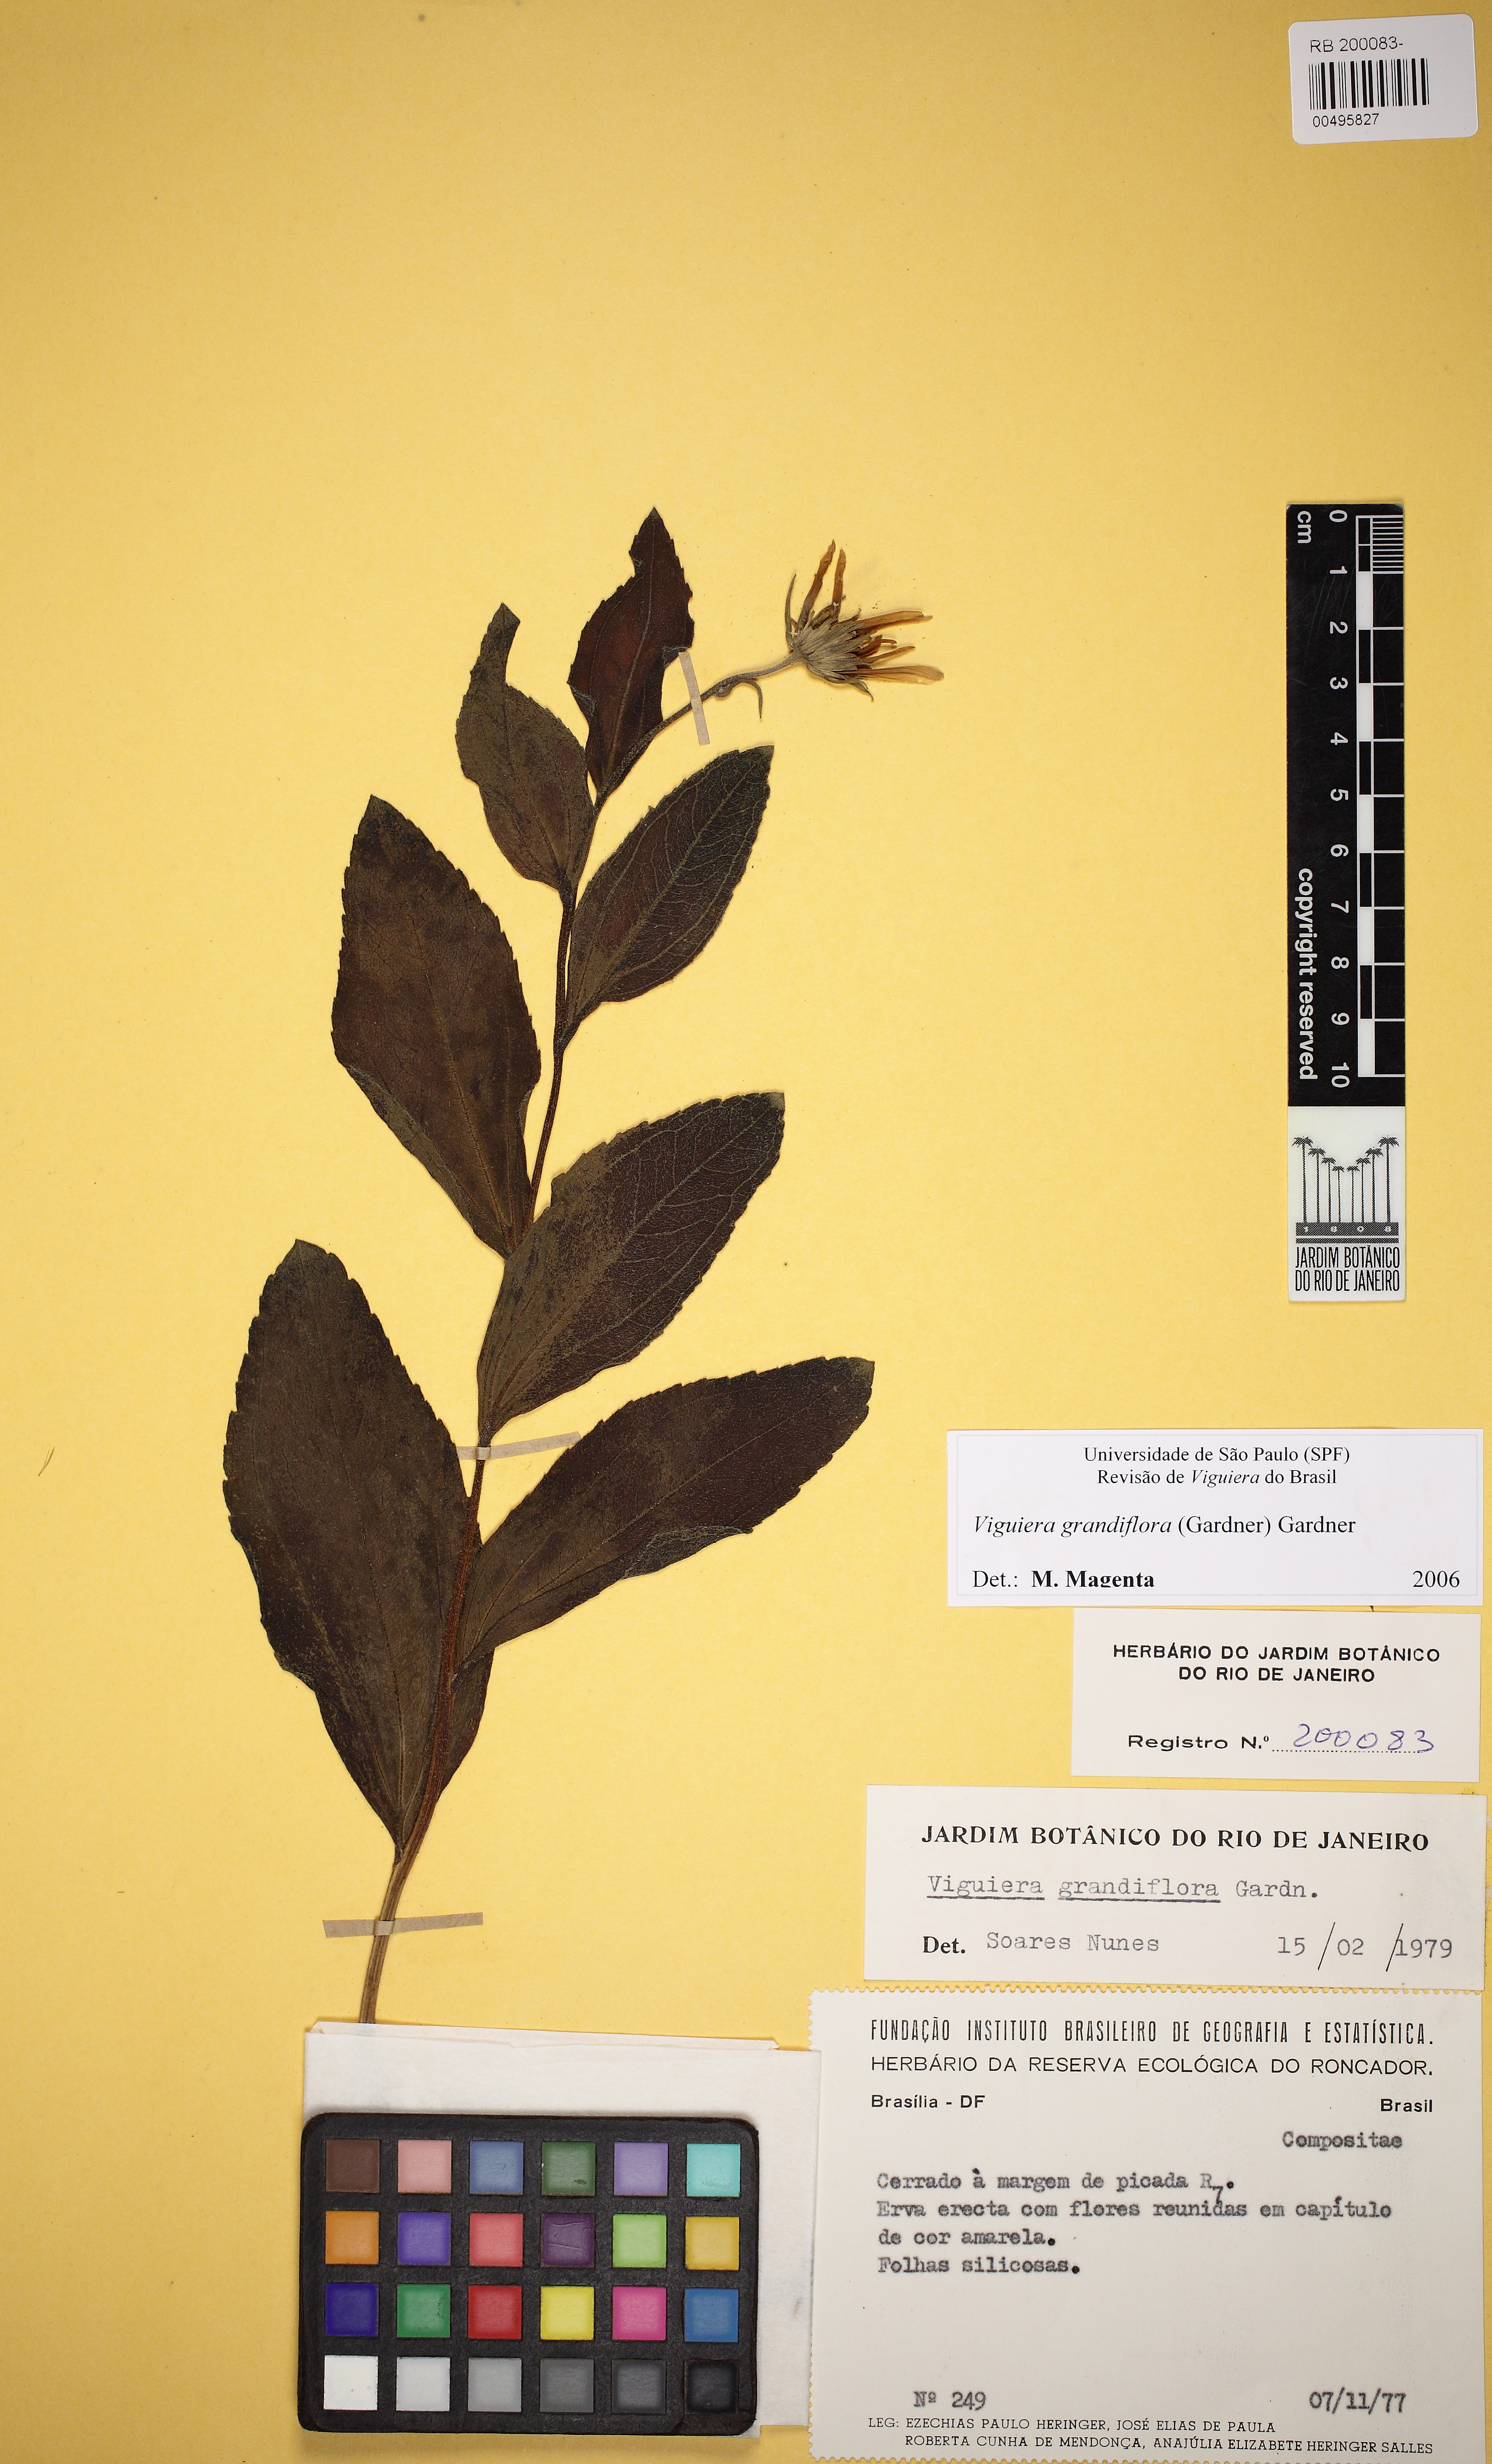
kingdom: Plantae
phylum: Tracheophyta
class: Magnoliopsida
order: Asterales
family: Asteraceae
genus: Aldama
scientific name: Aldama grandiflora
